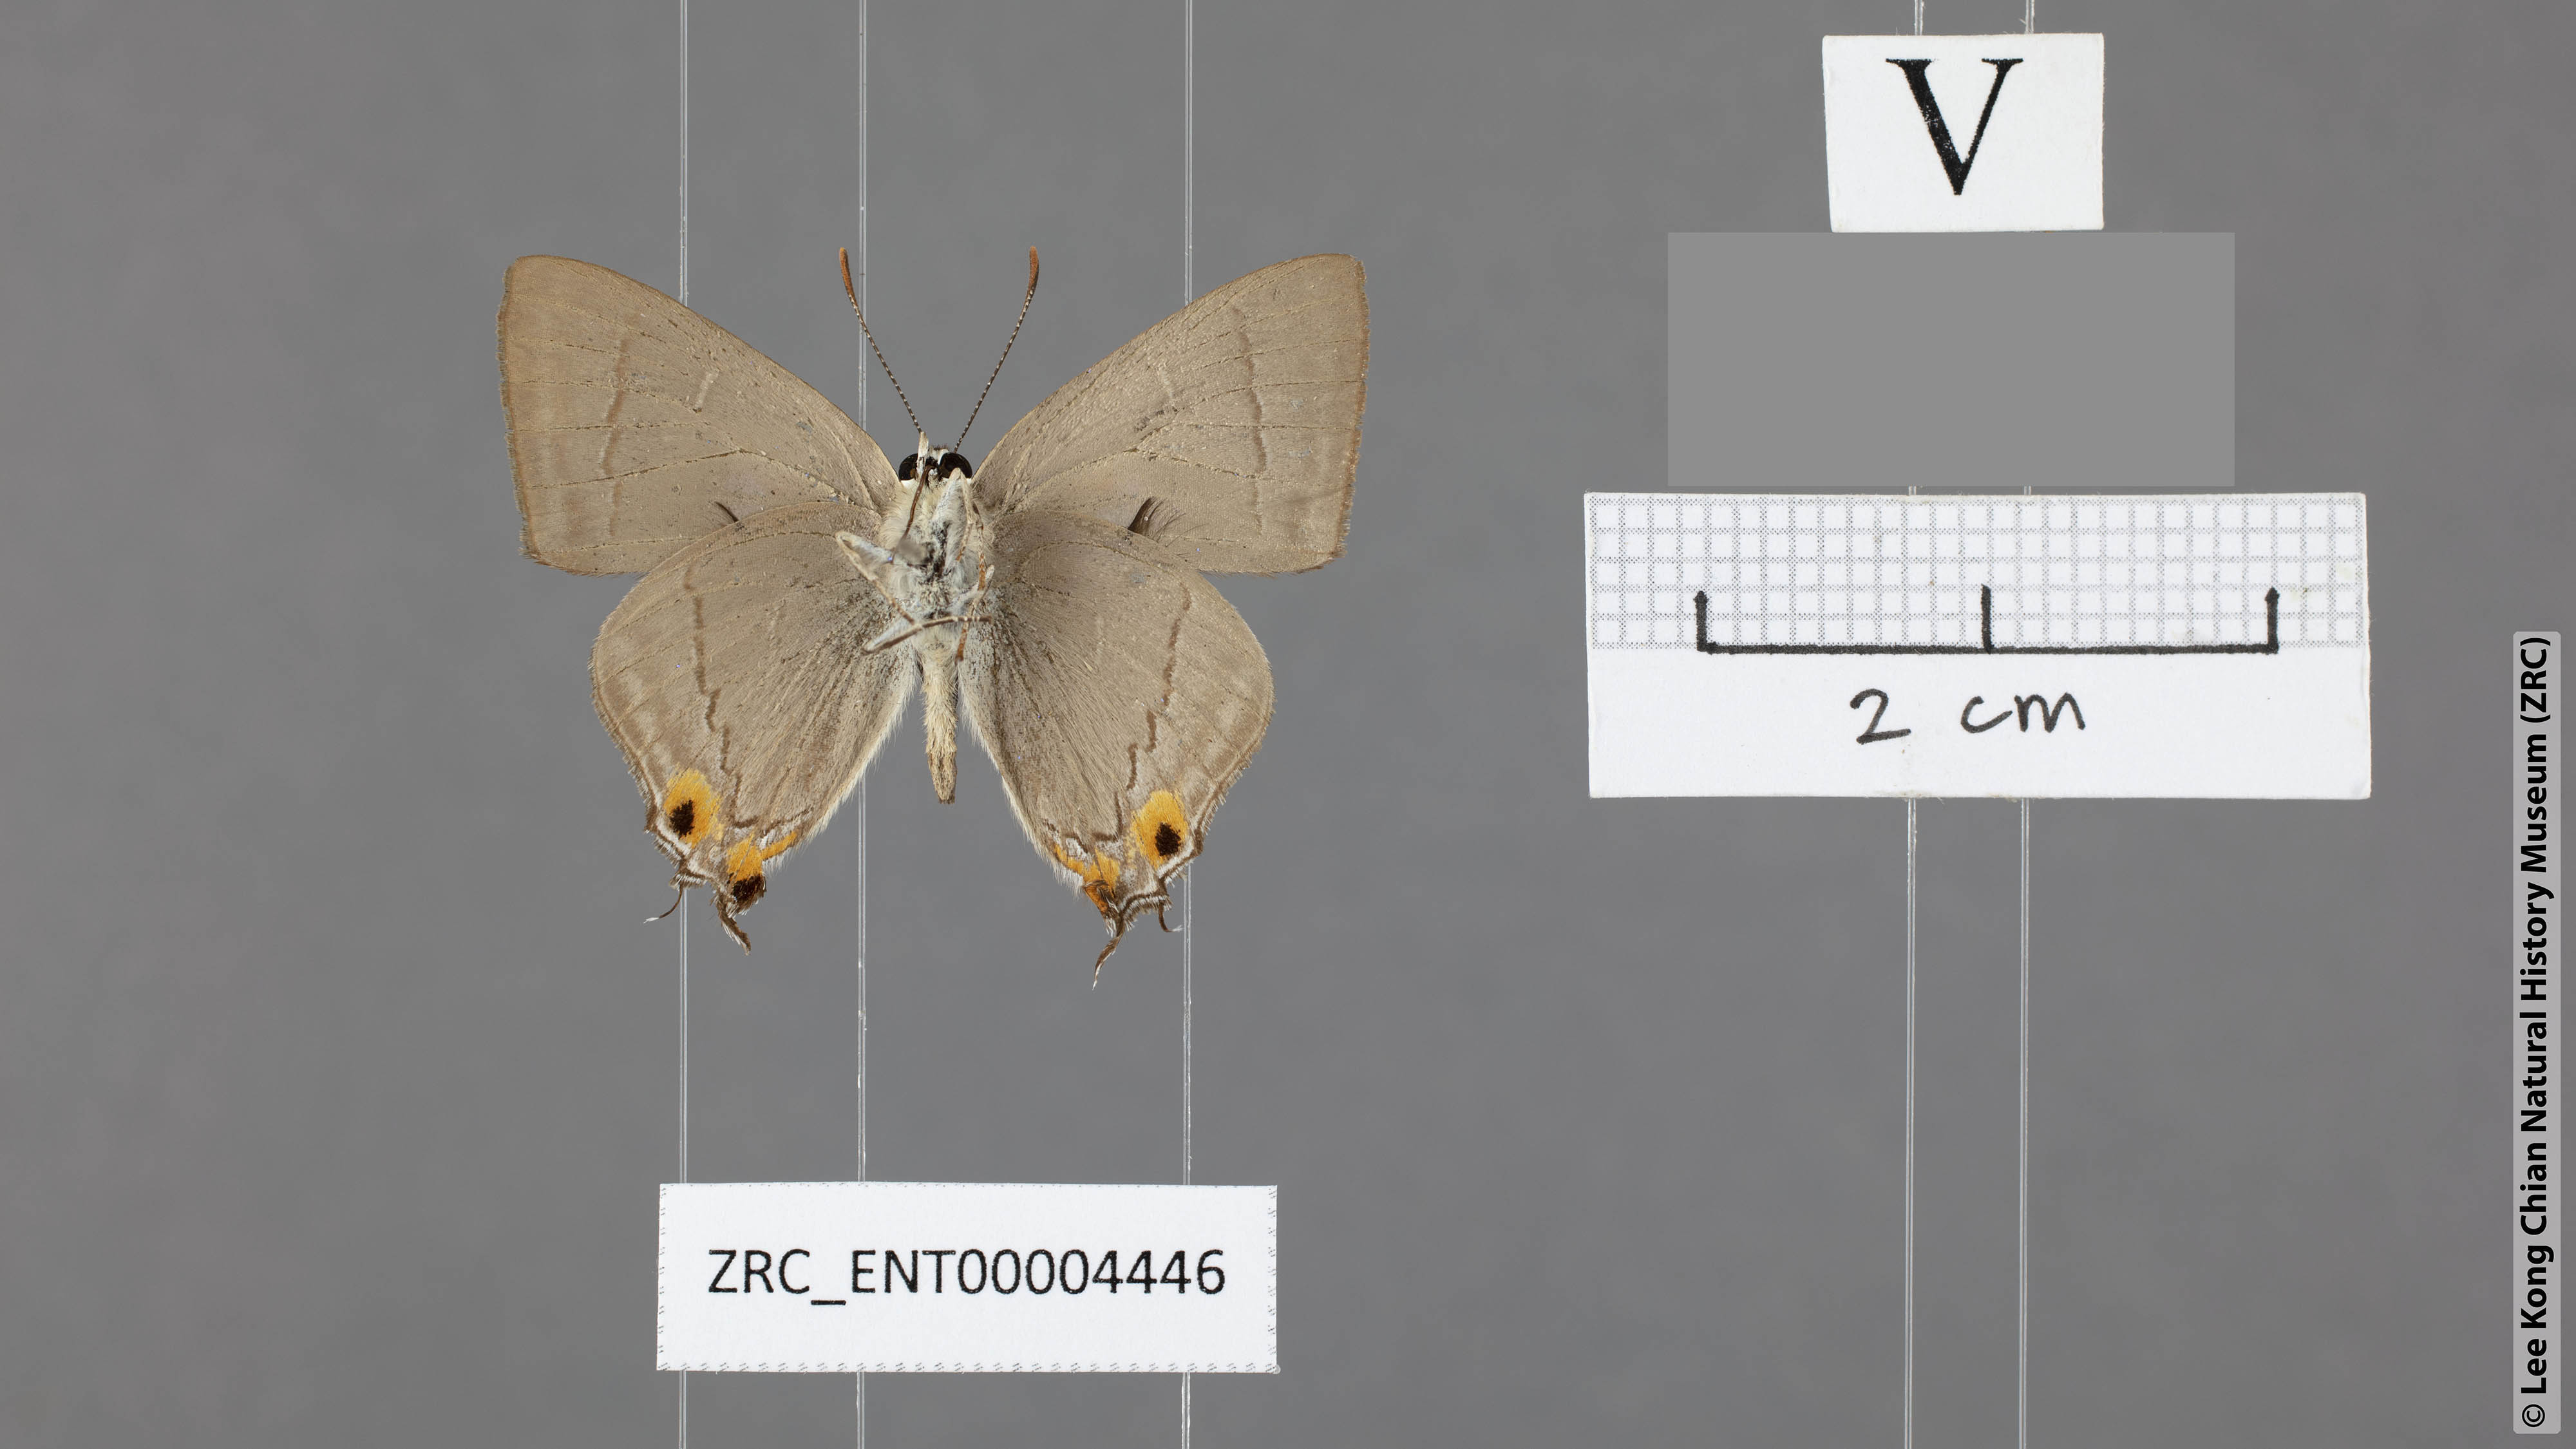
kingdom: Animalia
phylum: Arthropoda
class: Insecta
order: Lepidoptera
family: Lycaenidae
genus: Pratapa
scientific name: Pratapa icetas
